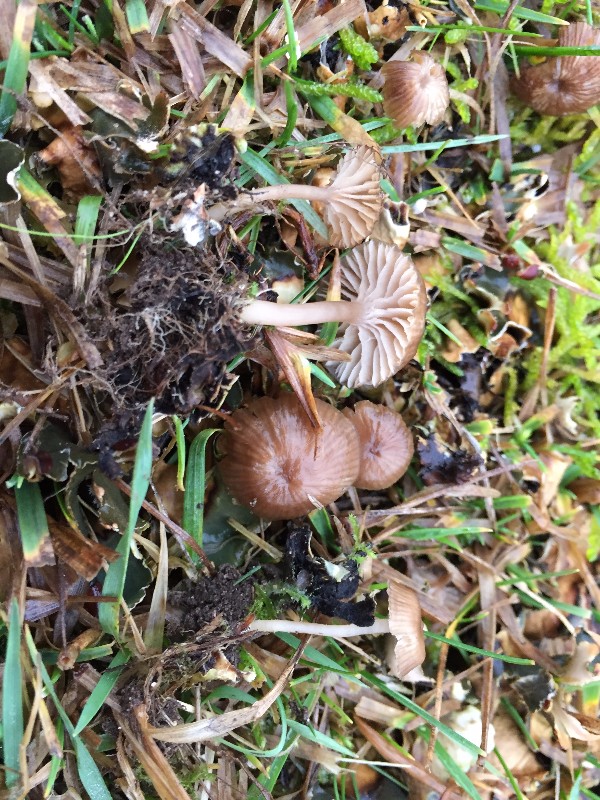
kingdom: Fungi
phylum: Basidiomycota
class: Agaricomycetes
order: Agaricales
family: Tricholomataceae
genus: Gamundia
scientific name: Gamundia xerophila
